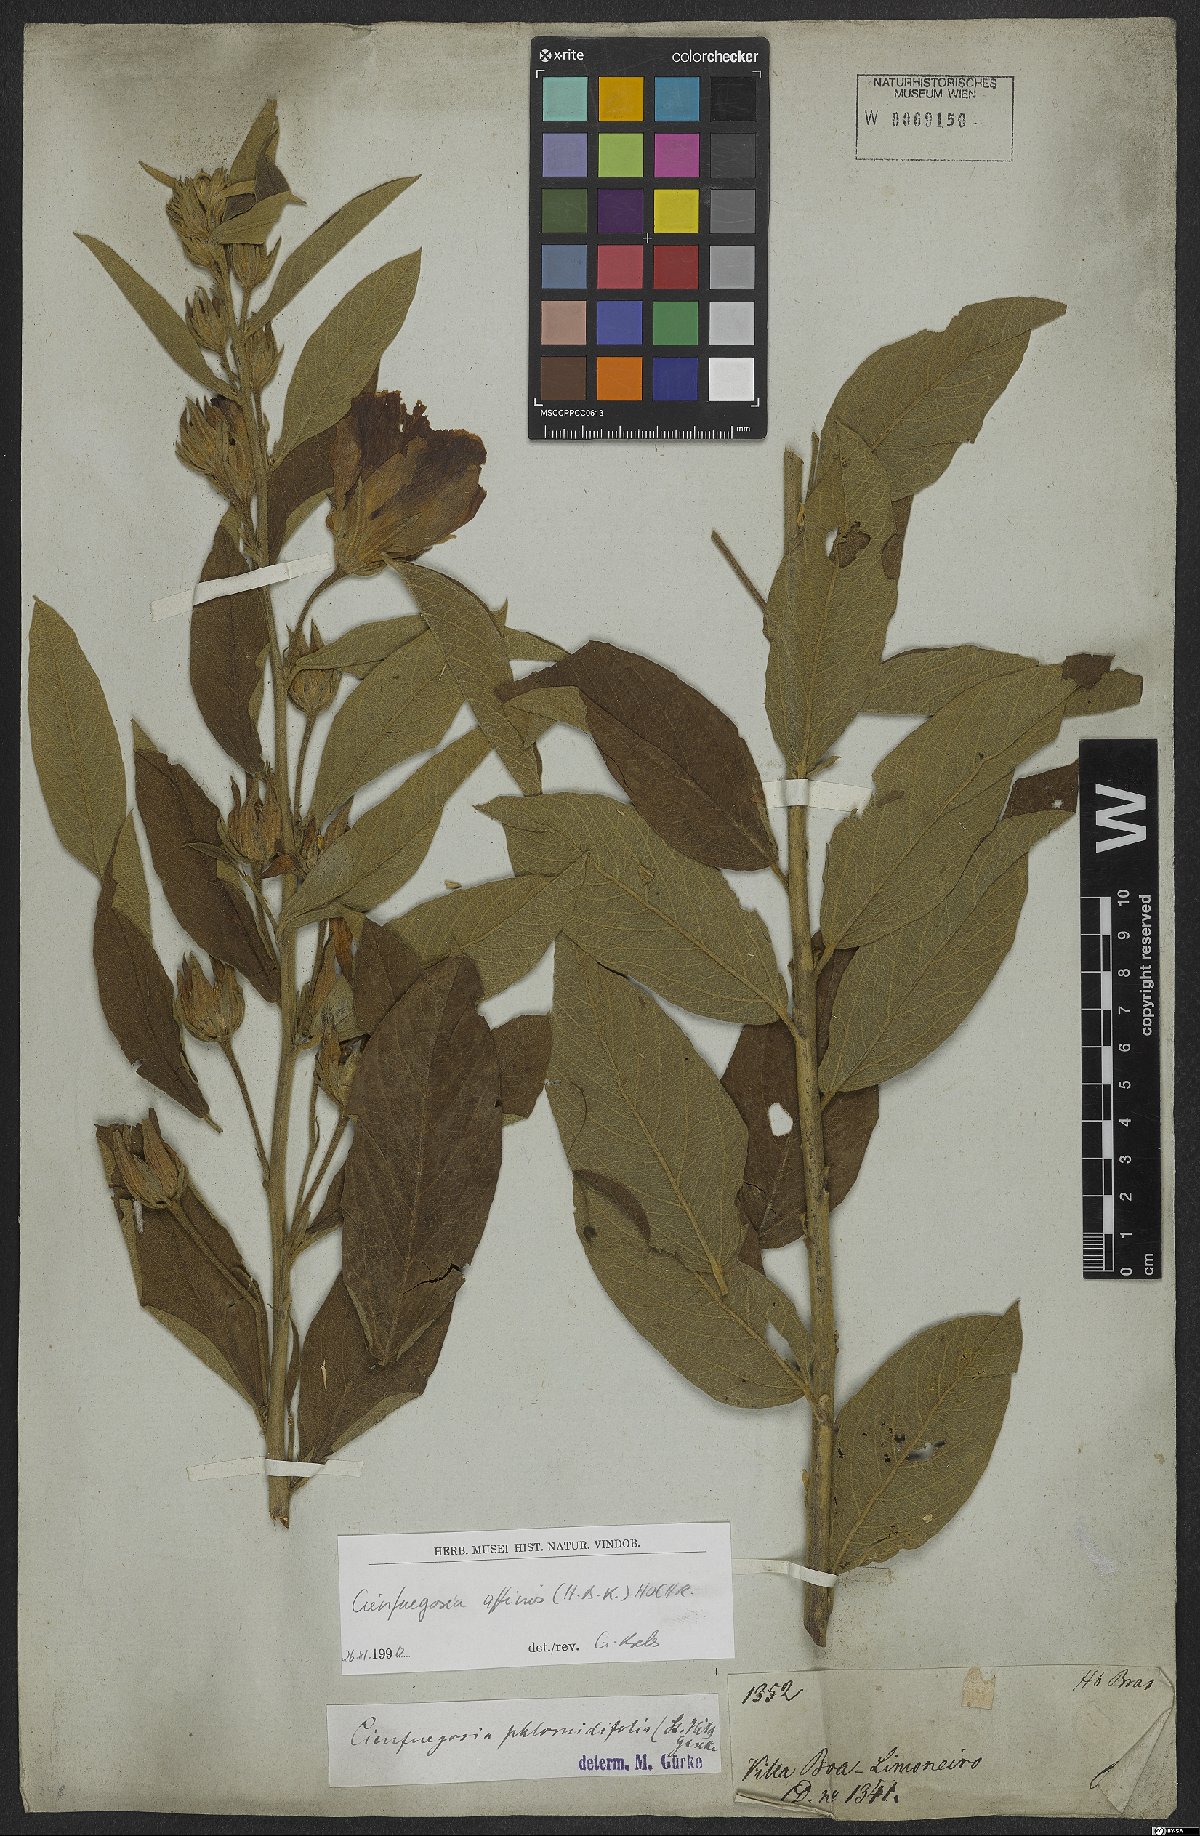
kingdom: Plantae
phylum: Tracheophyta
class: Magnoliopsida
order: Malvales
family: Malvaceae
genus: Cienfuegosia
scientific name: Cienfuegosia affinis
